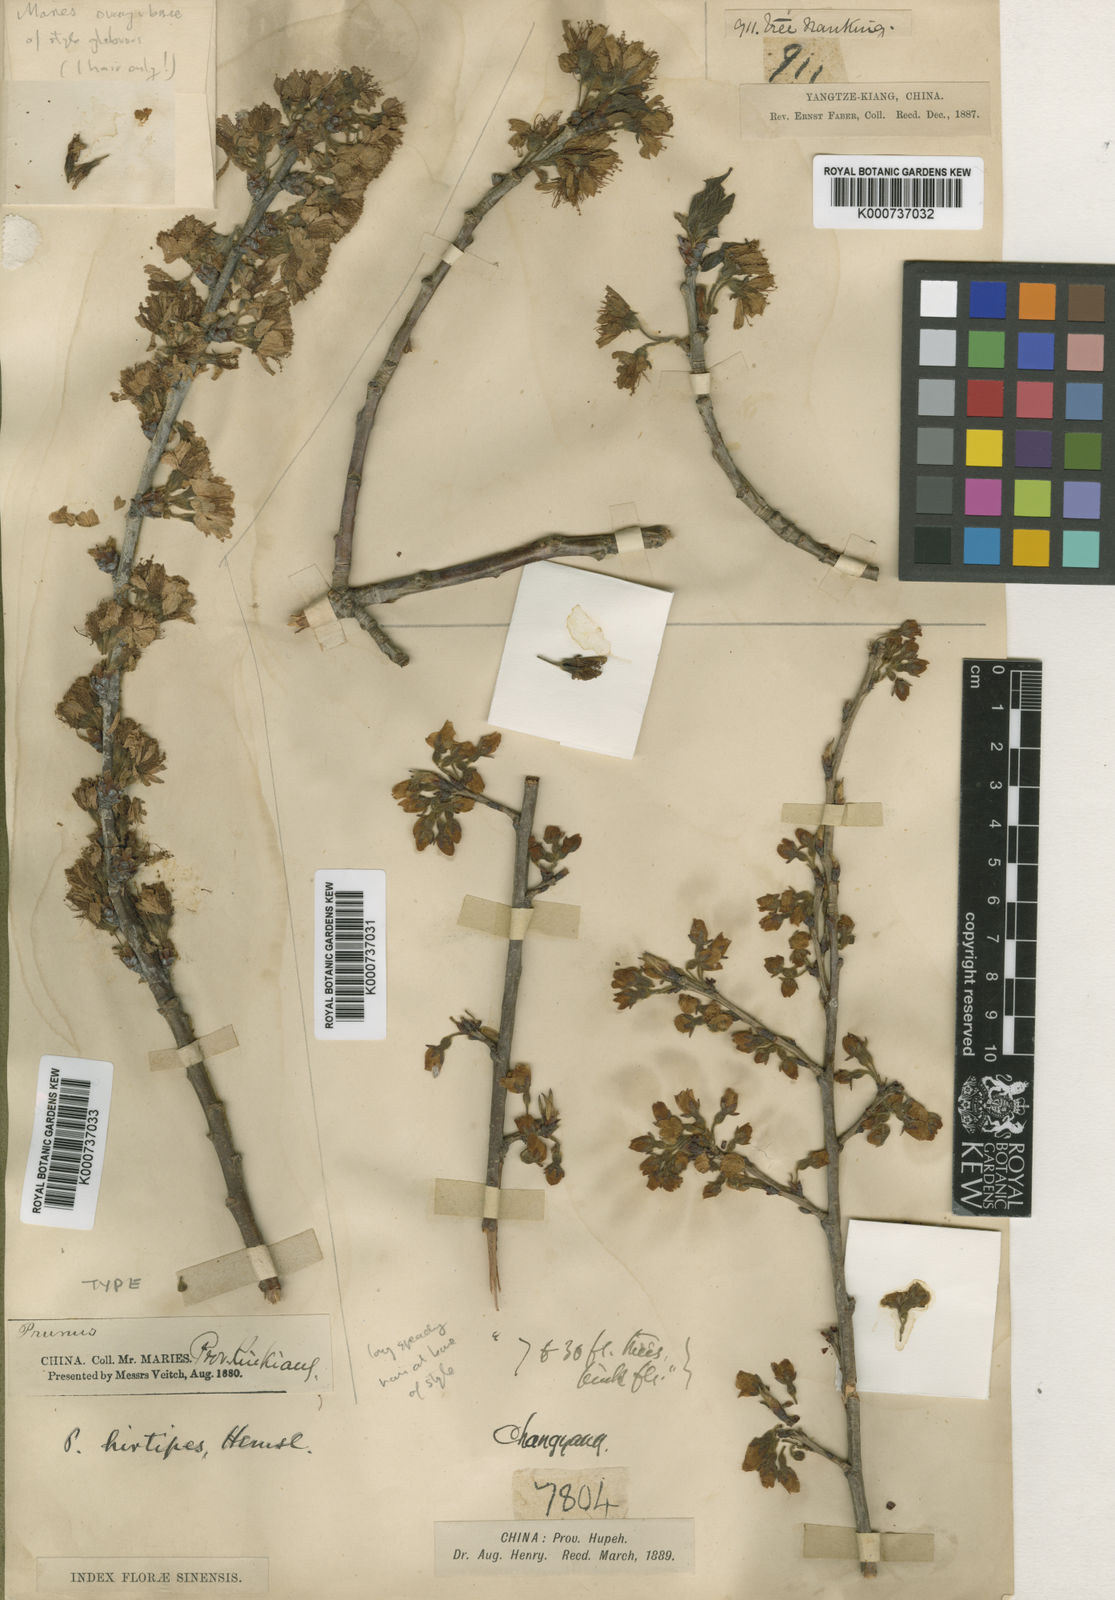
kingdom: Plantae
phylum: Tracheophyta
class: Magnoliopsida
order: Rosales
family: Rosaceae
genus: Prunus
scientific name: Prunus hirtipes
